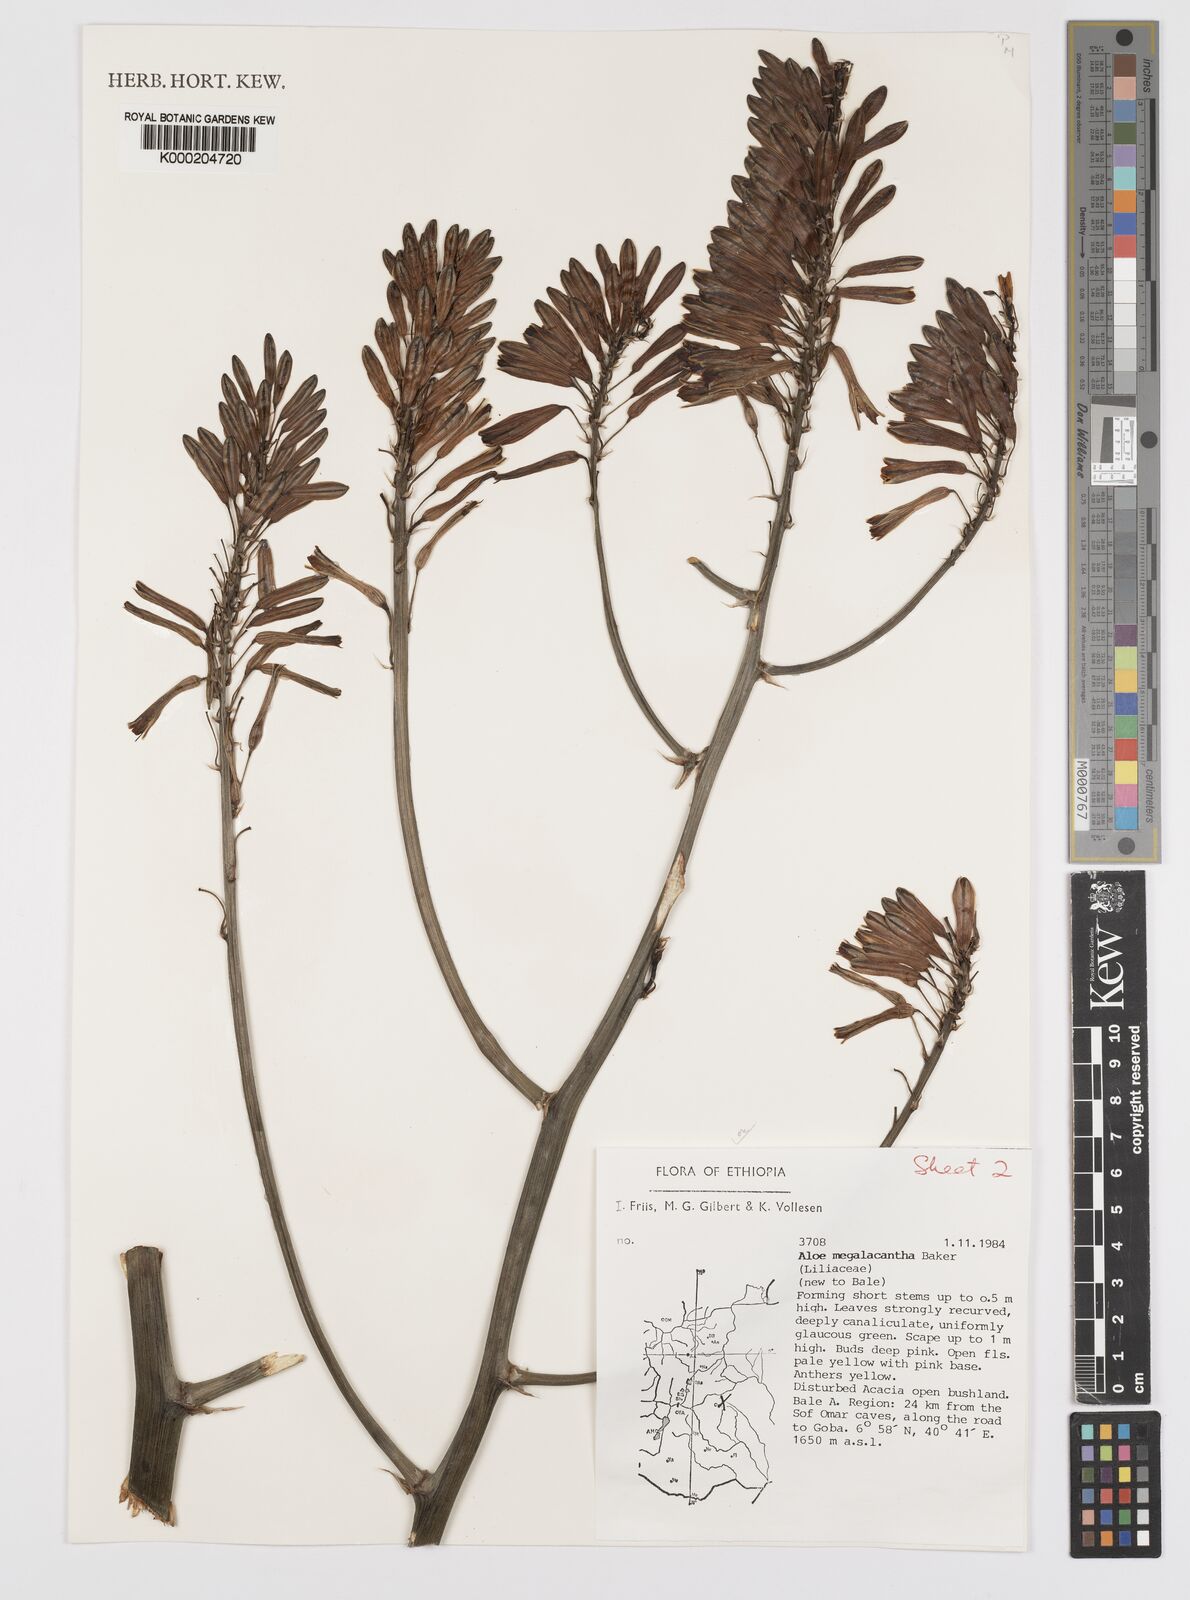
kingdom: Plantae
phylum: Tracheophyta
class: Liliopsida
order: Asparagales
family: Asphodelaceae
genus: Aloe
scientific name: Aloe megalacantha
